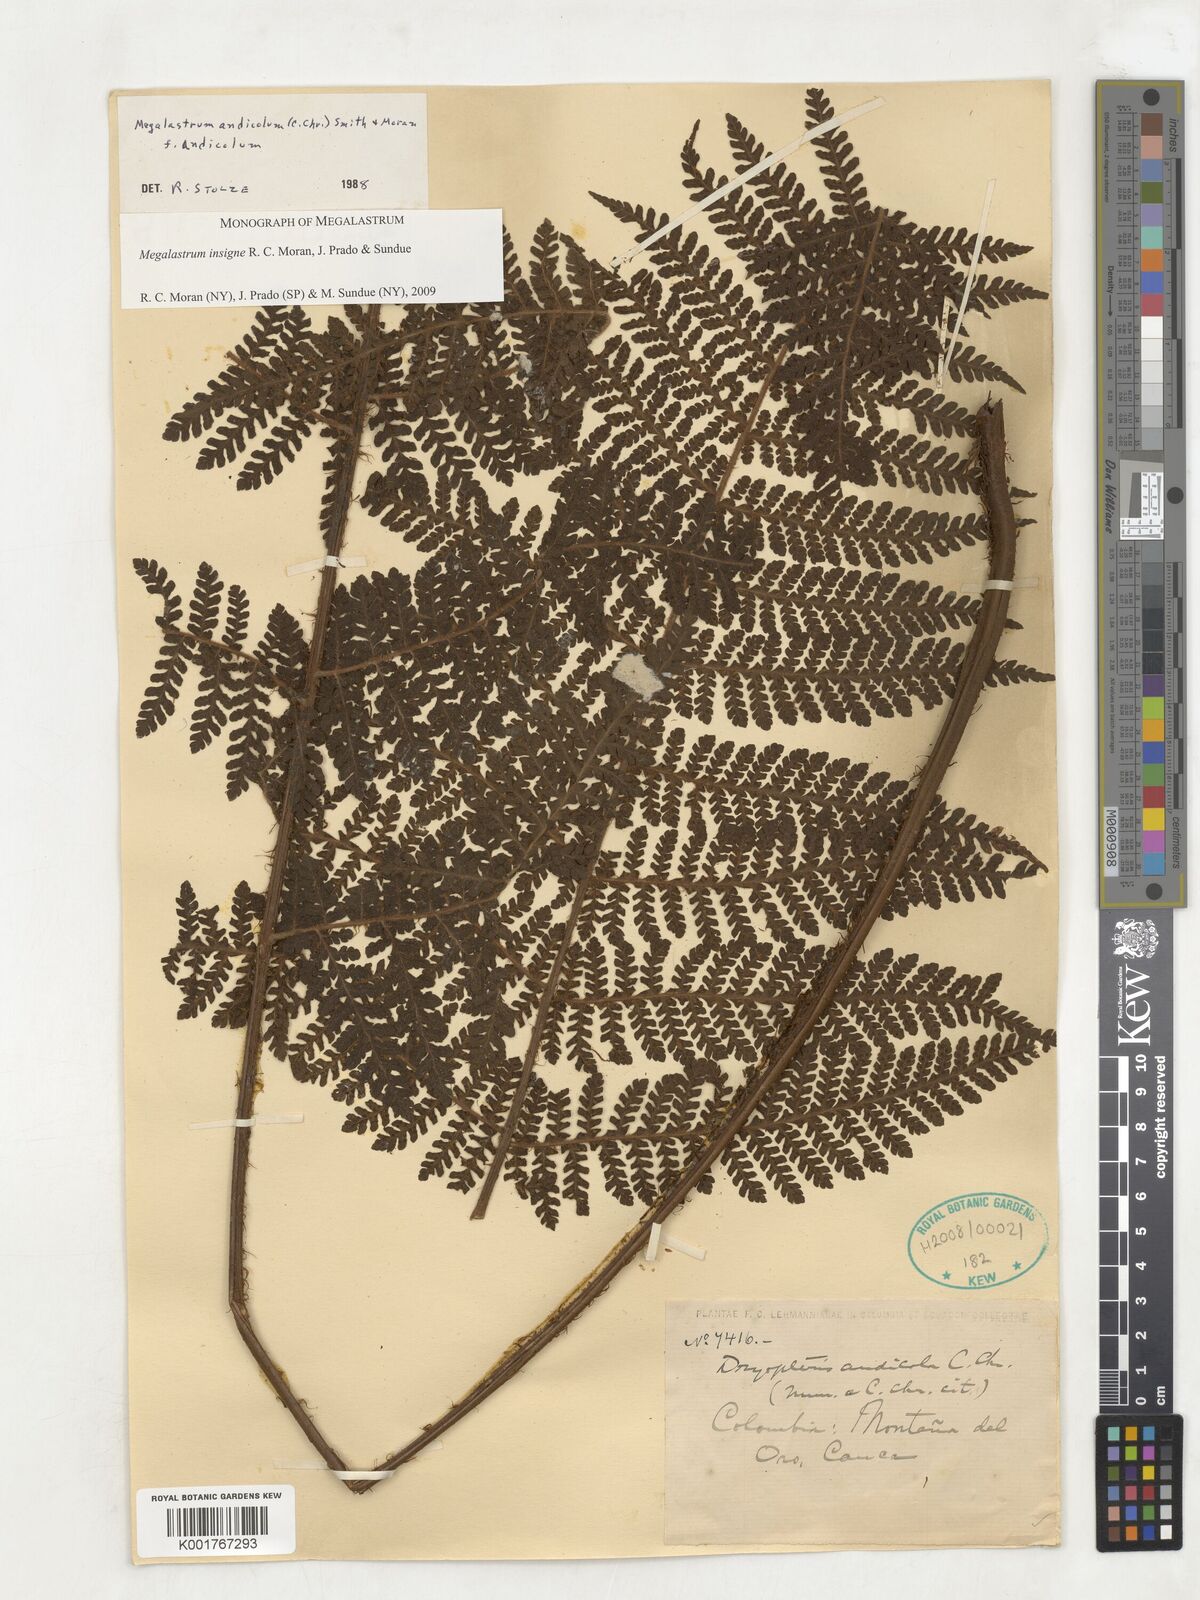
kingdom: Plantae
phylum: Tracheophyta
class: Polypodiopsida
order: Polypodiales
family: Dryopteridaceae
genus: Megalastrum
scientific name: Megalastrum insigne
